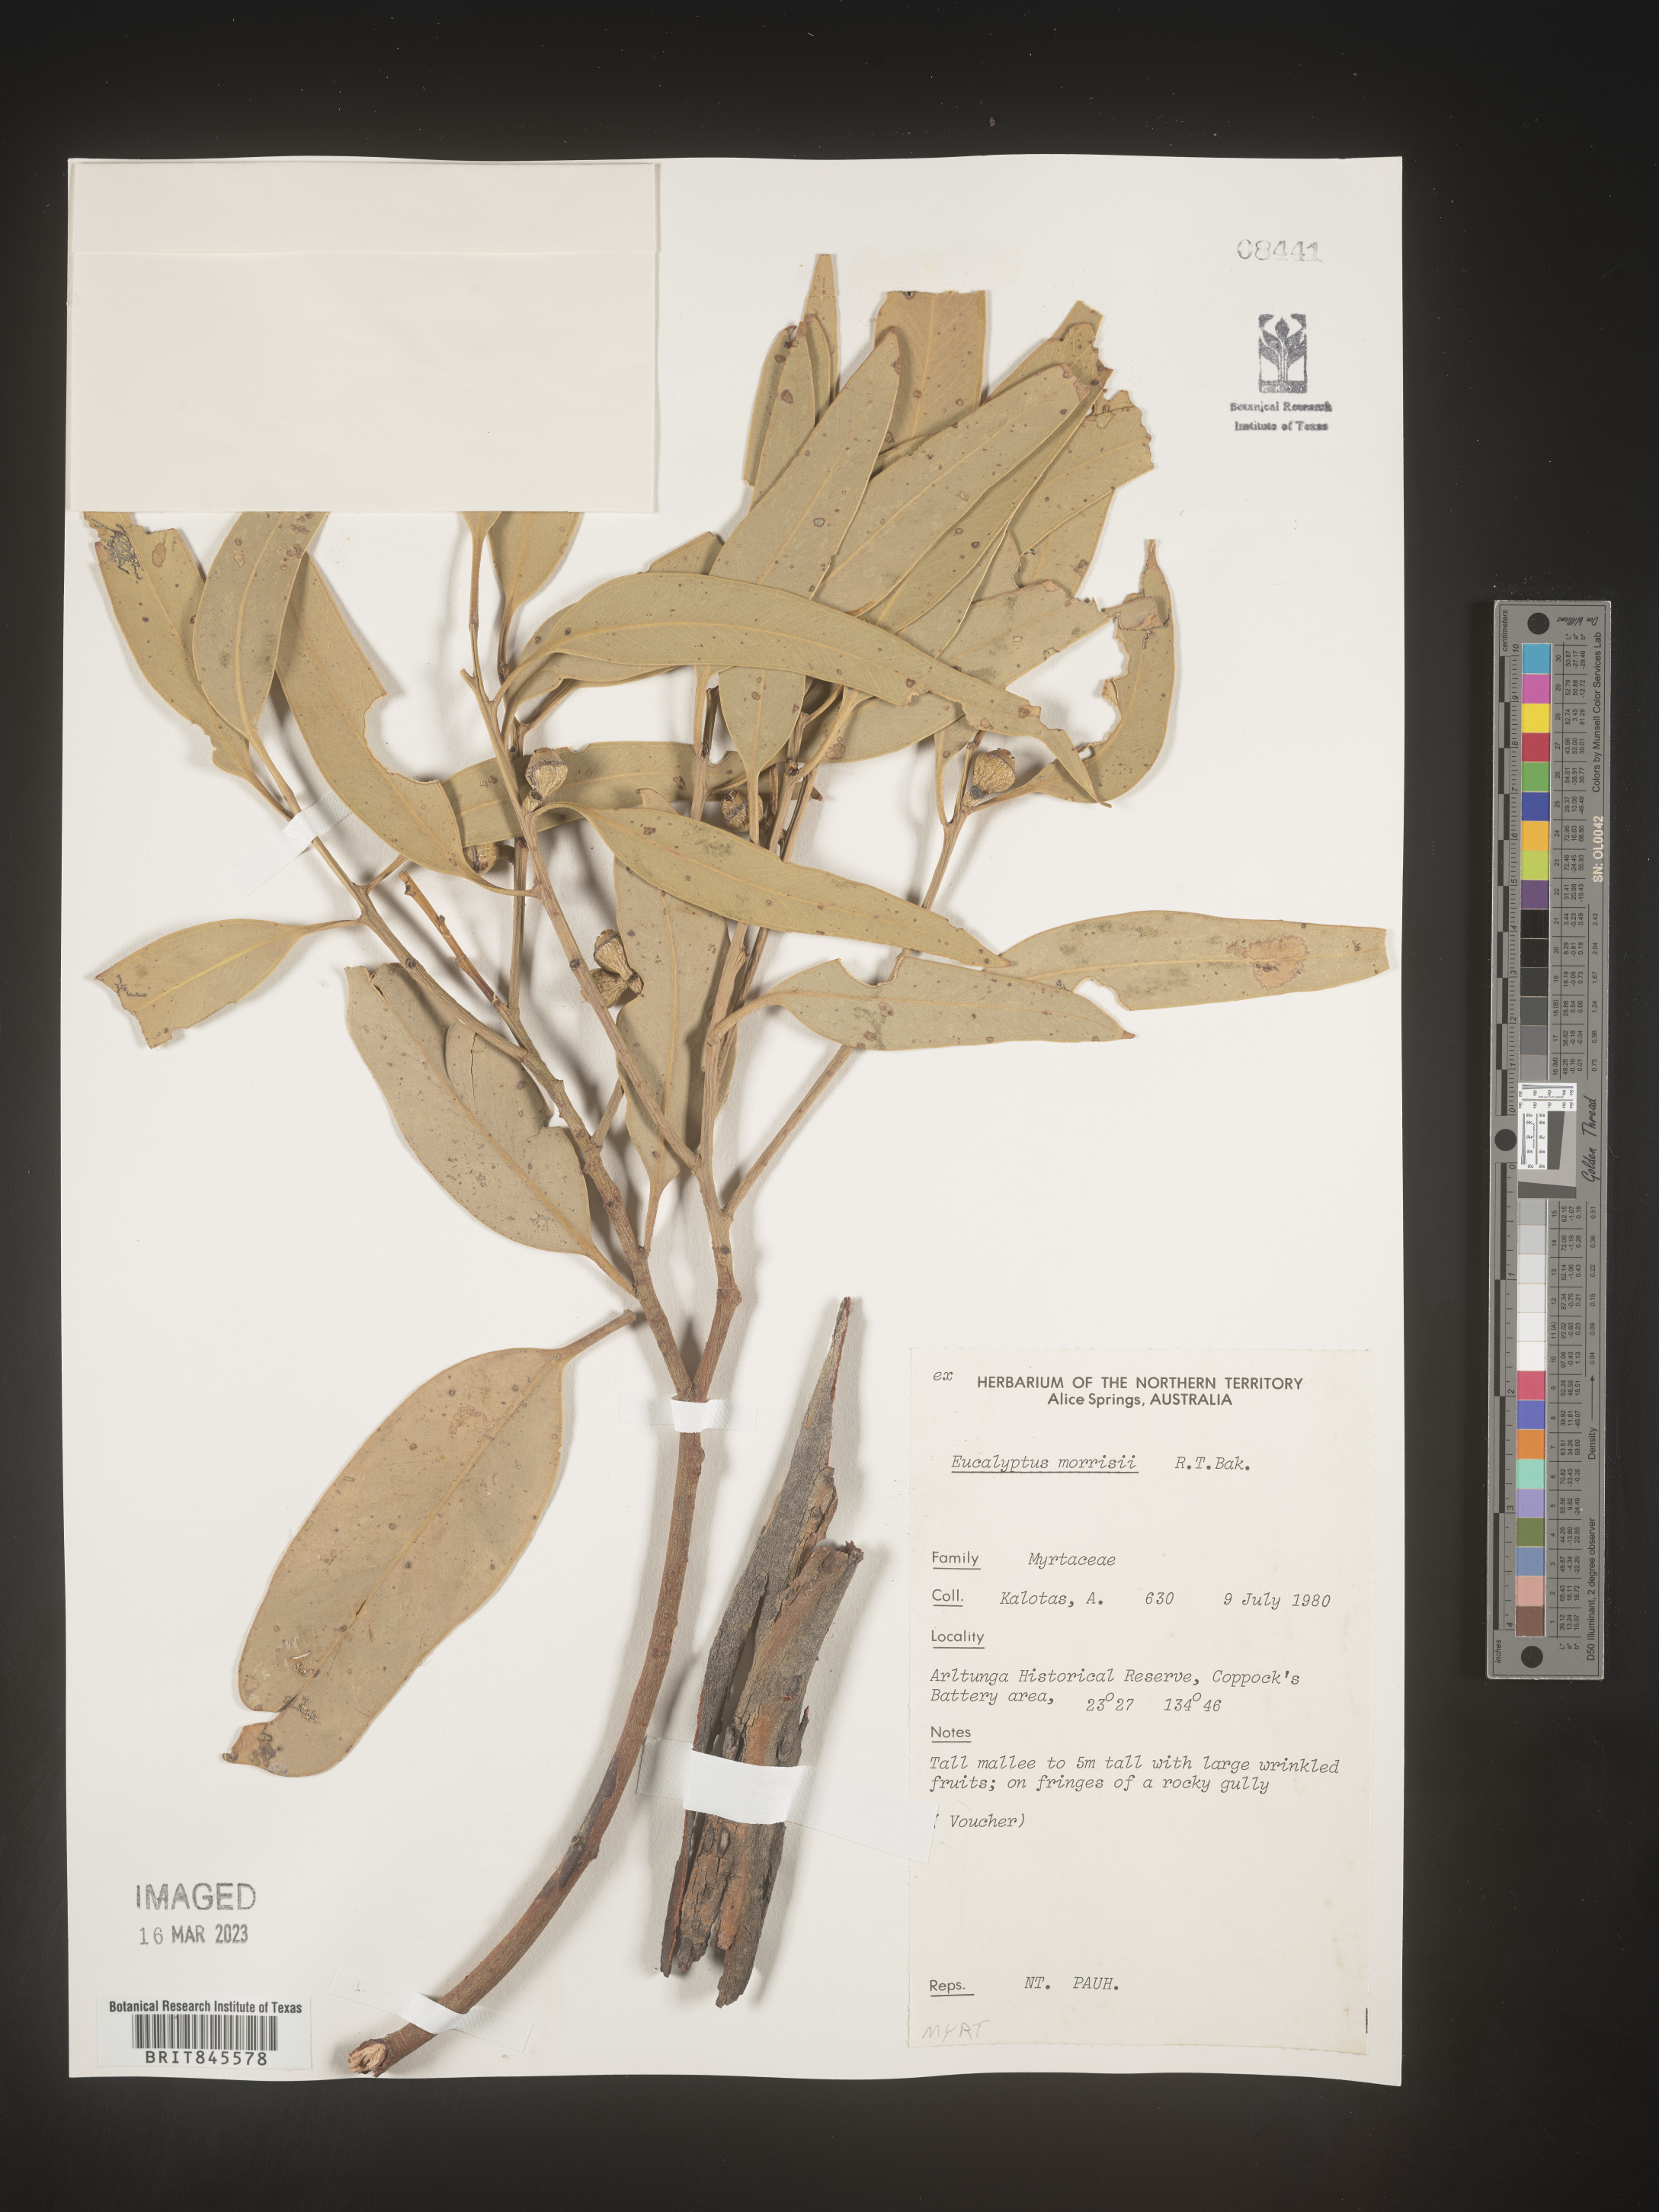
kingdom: Plantae
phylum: Tracheophyta
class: Magnoliopsida
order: Myrtales
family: Myrtaceae
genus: Eucalyptus
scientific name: Eucalyptus
